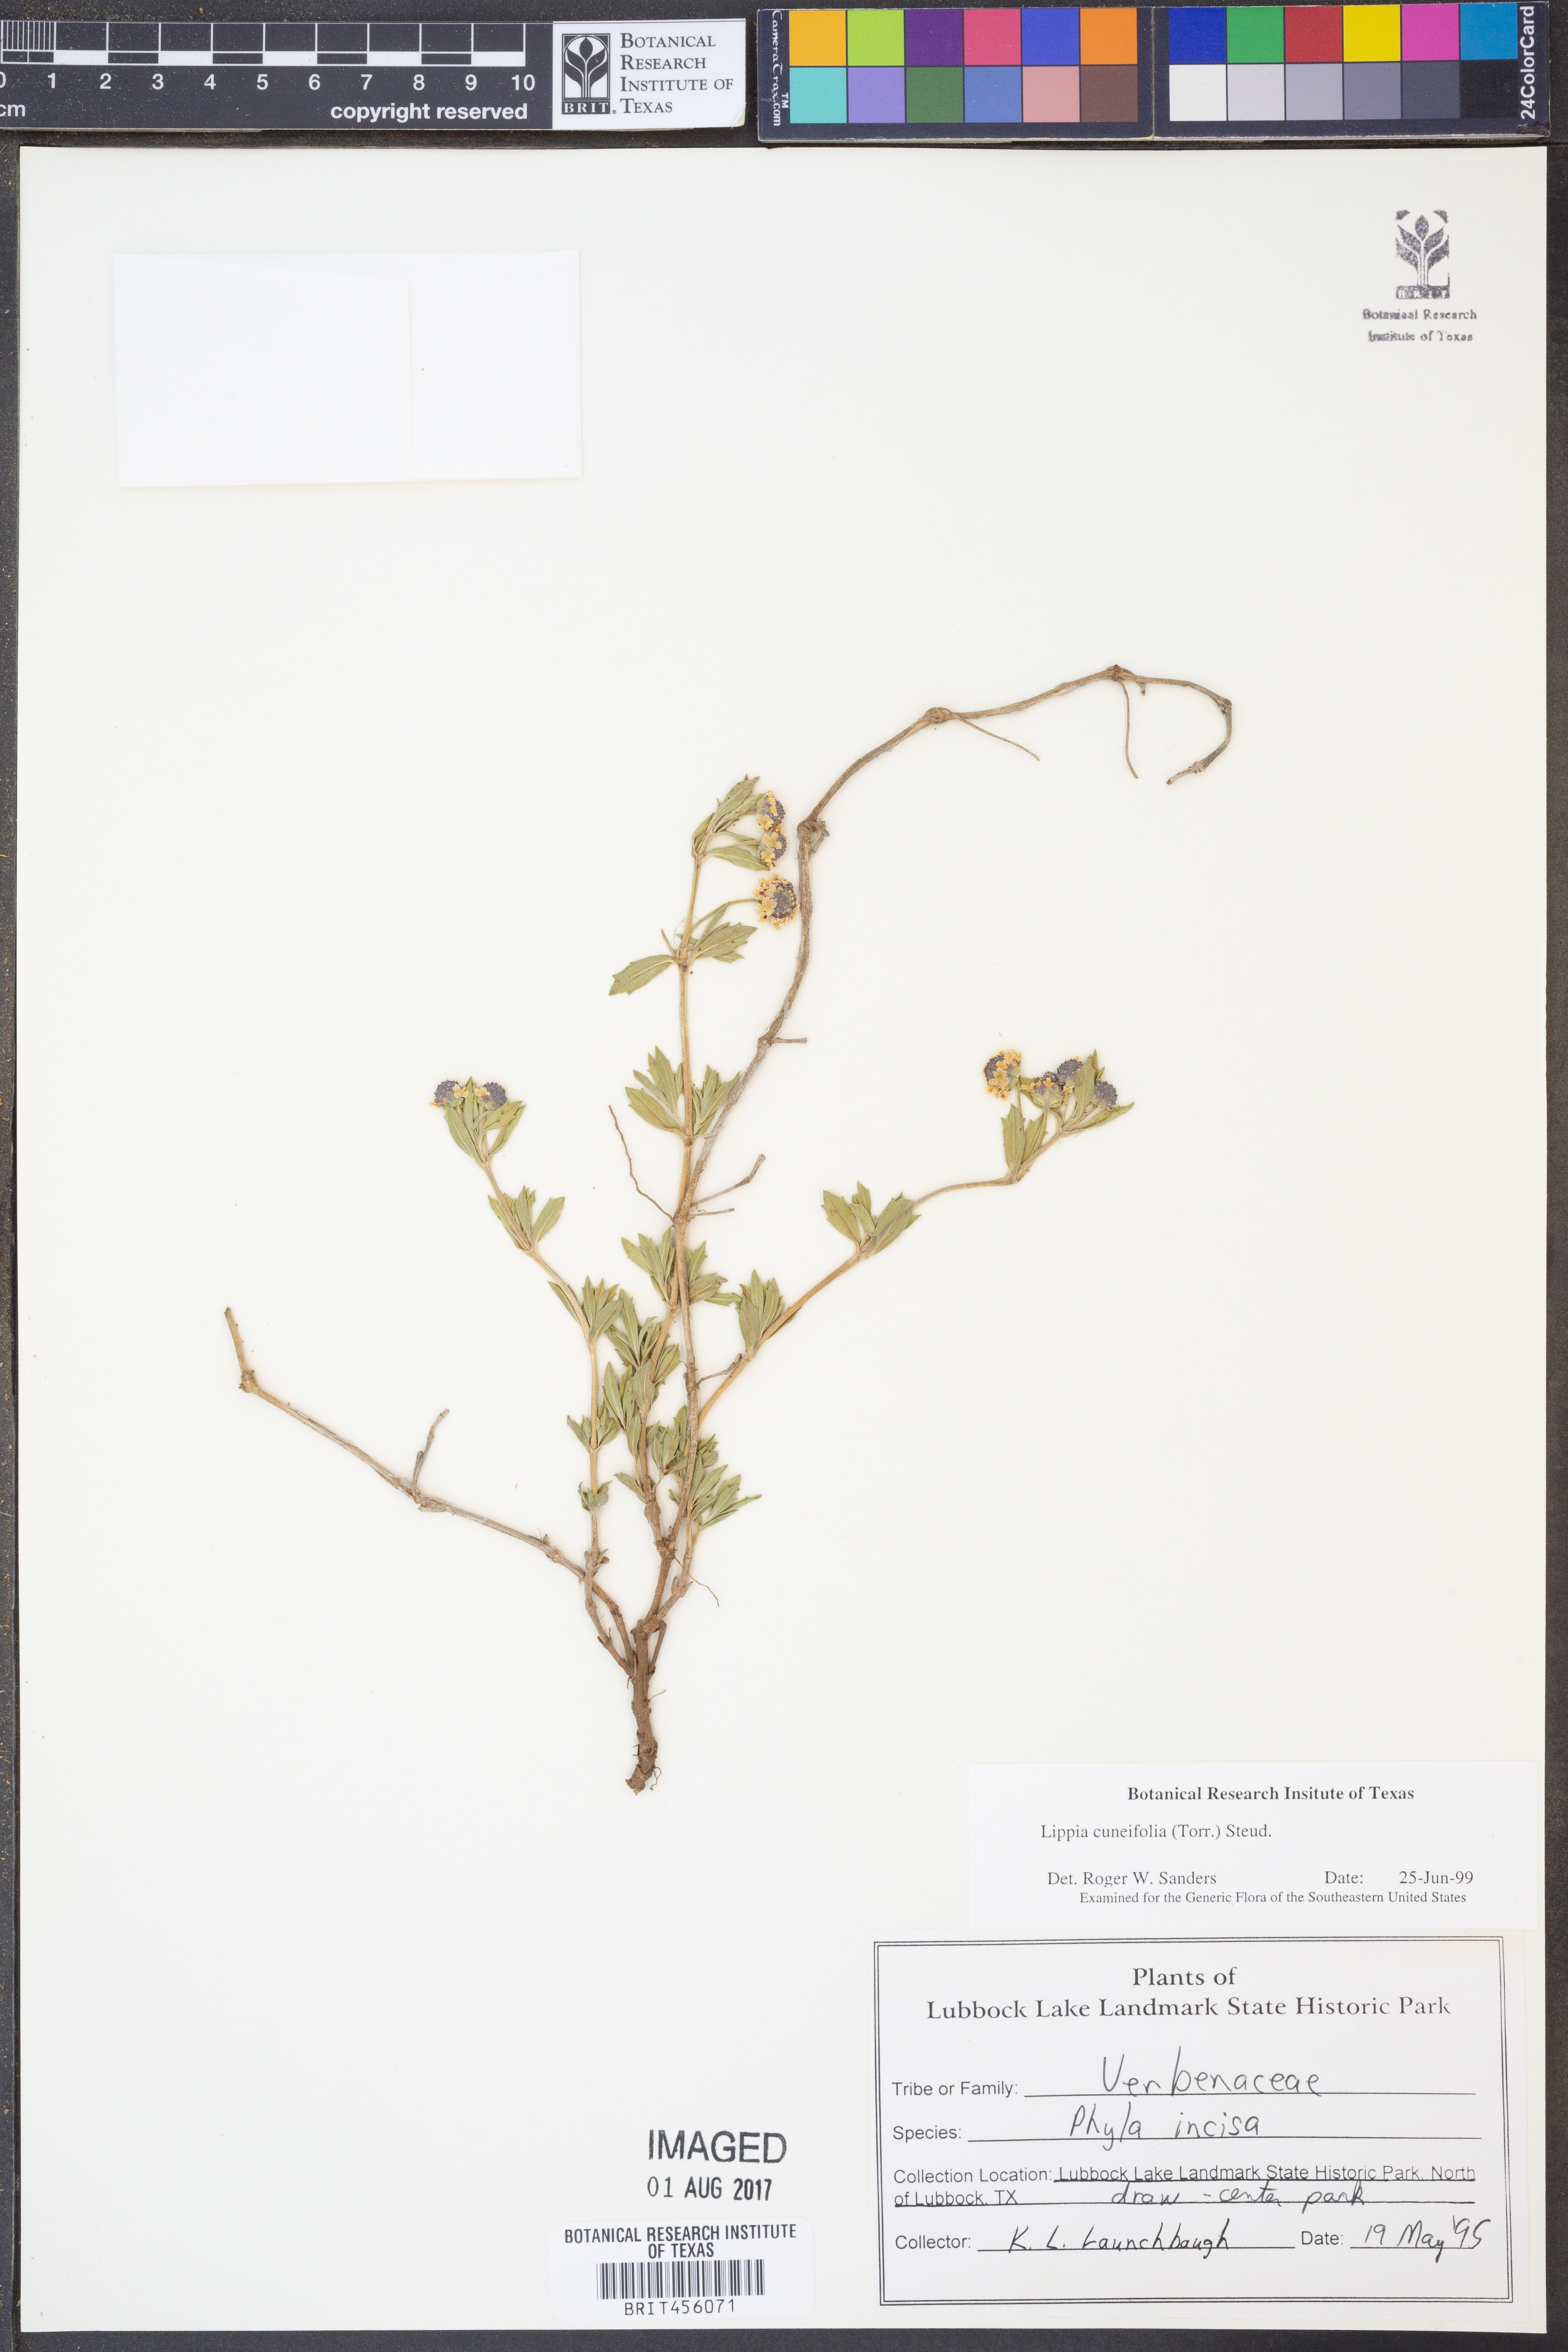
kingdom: Plantae
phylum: Tracheophyta
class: Magnoliopsida
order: Lamiales
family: Verbenaceae
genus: Phyla
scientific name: Phyla cuneifolia
